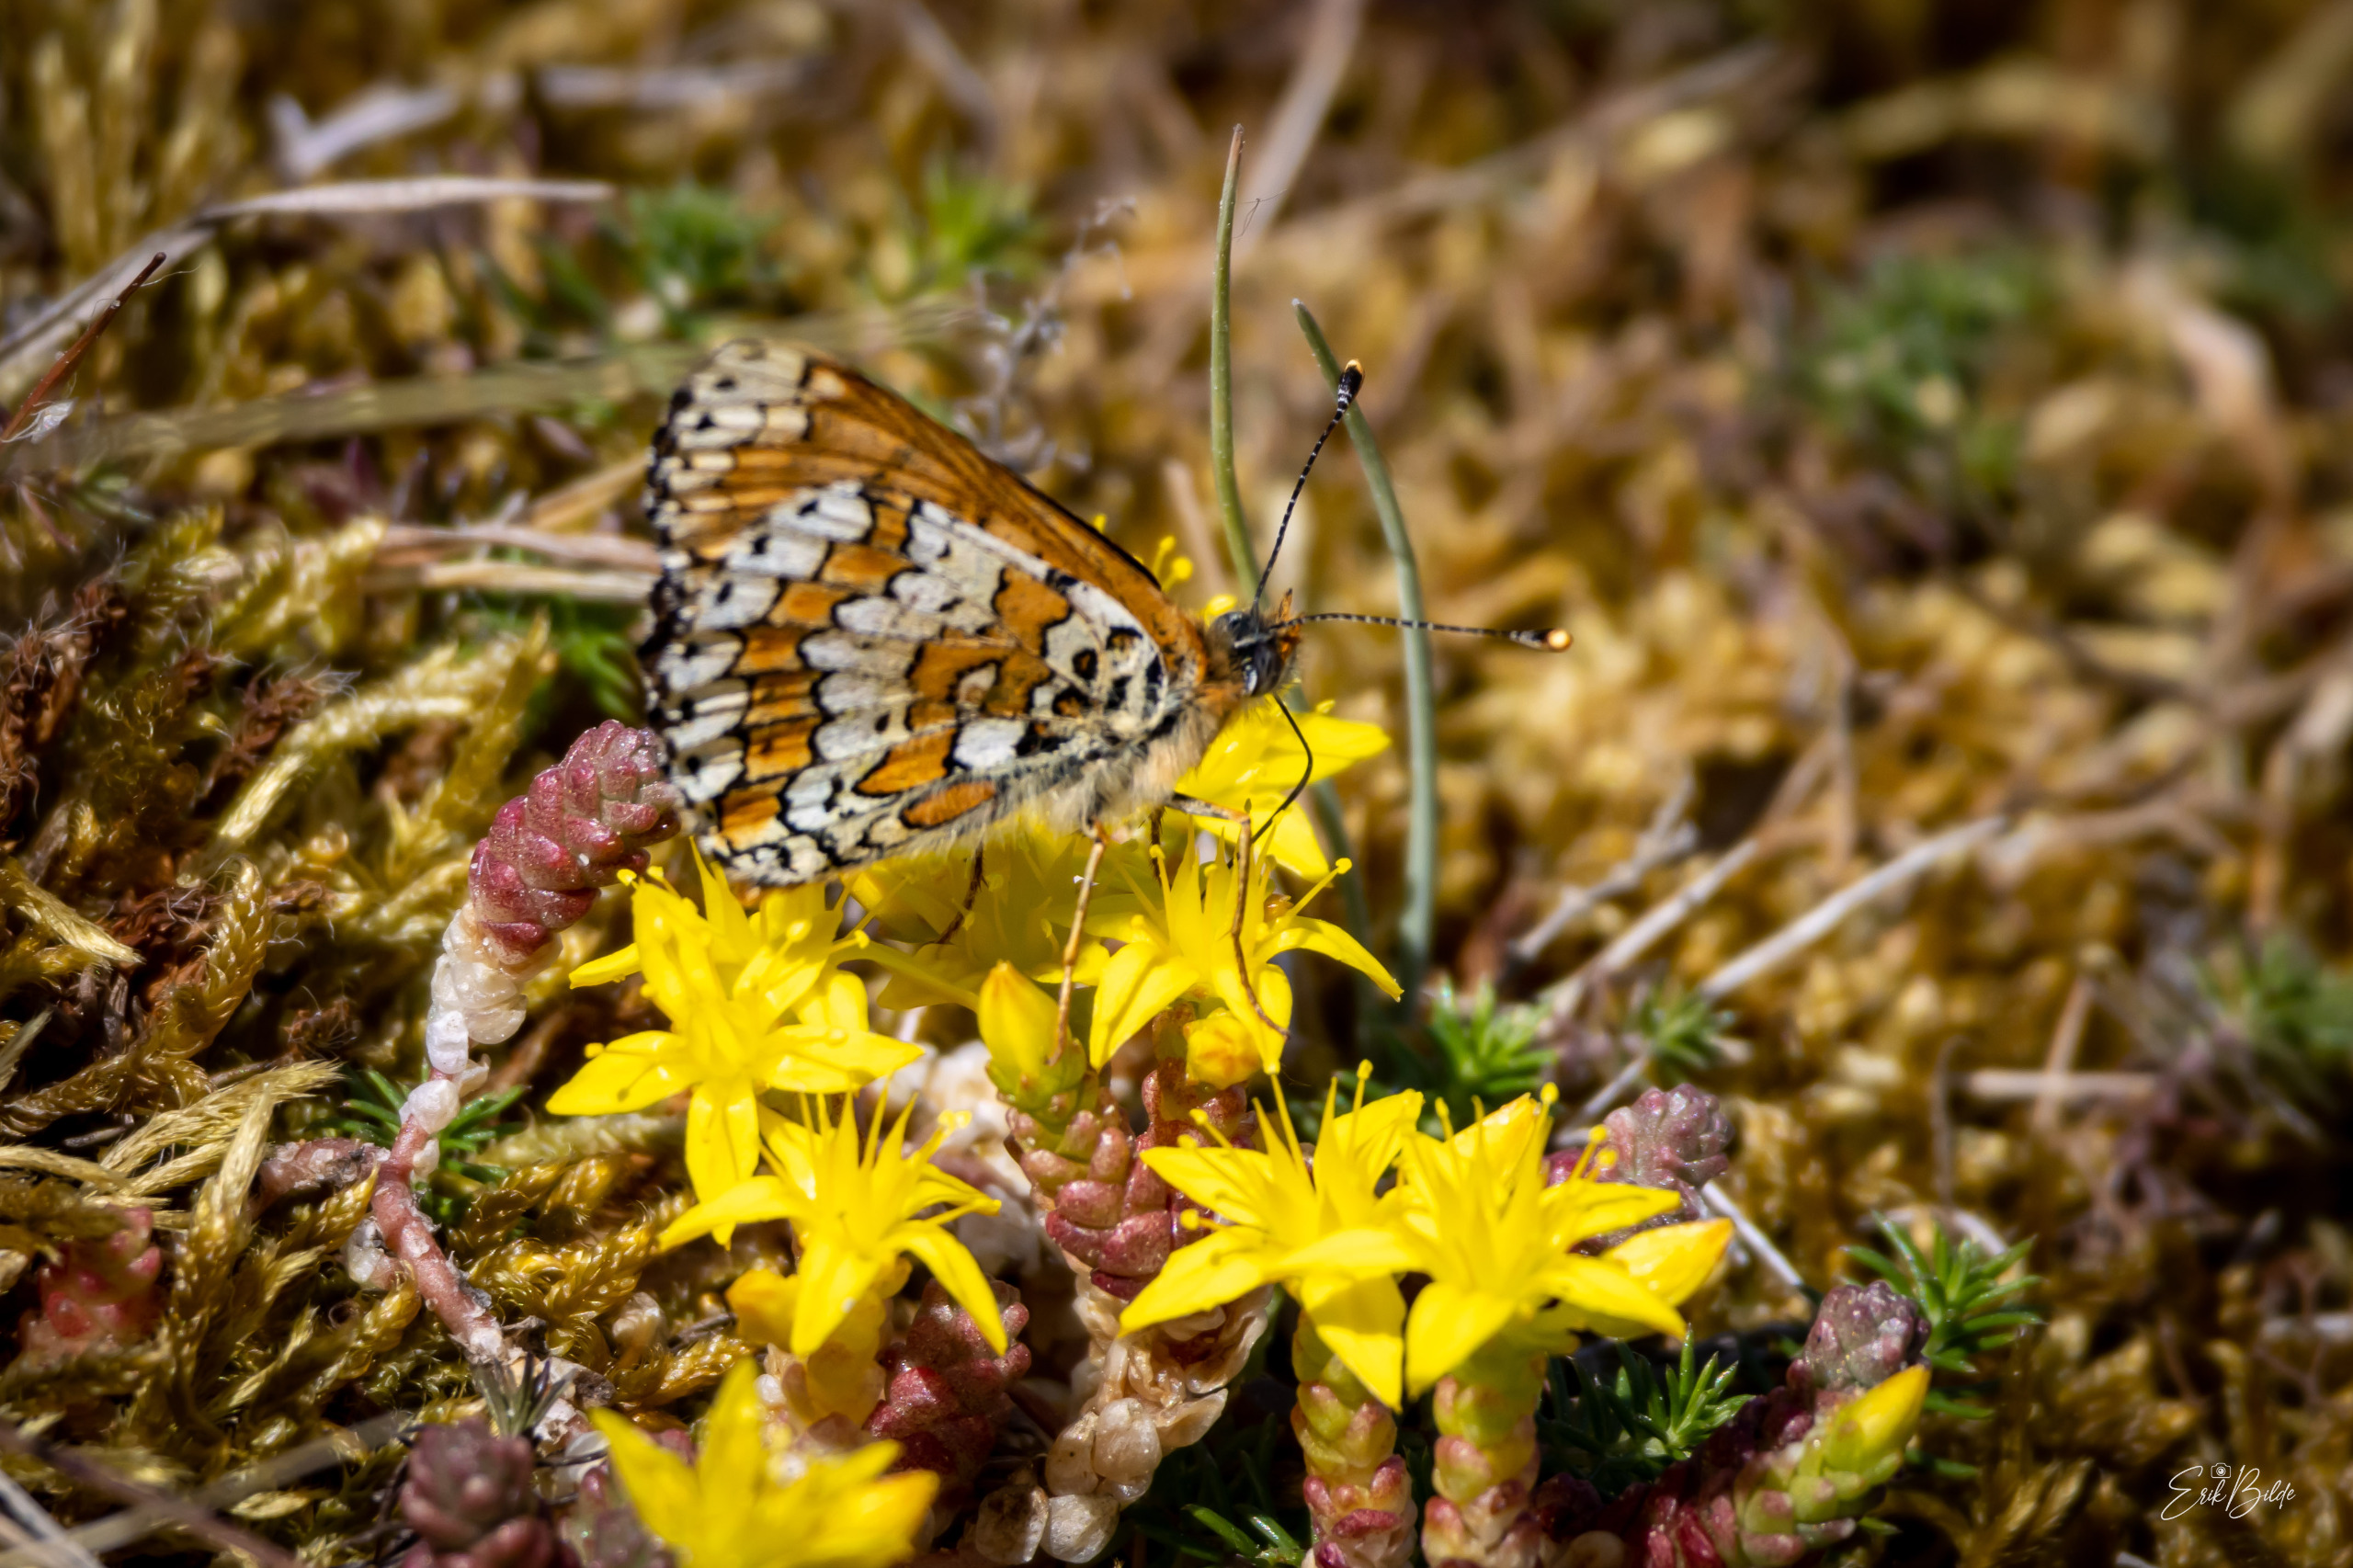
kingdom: Animalia
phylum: Arthropoda
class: Insecta
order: Lepidoptera
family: Nymphalidae
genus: Melitaea
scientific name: Melitaea cinxia
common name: Okkergul pletvinge
